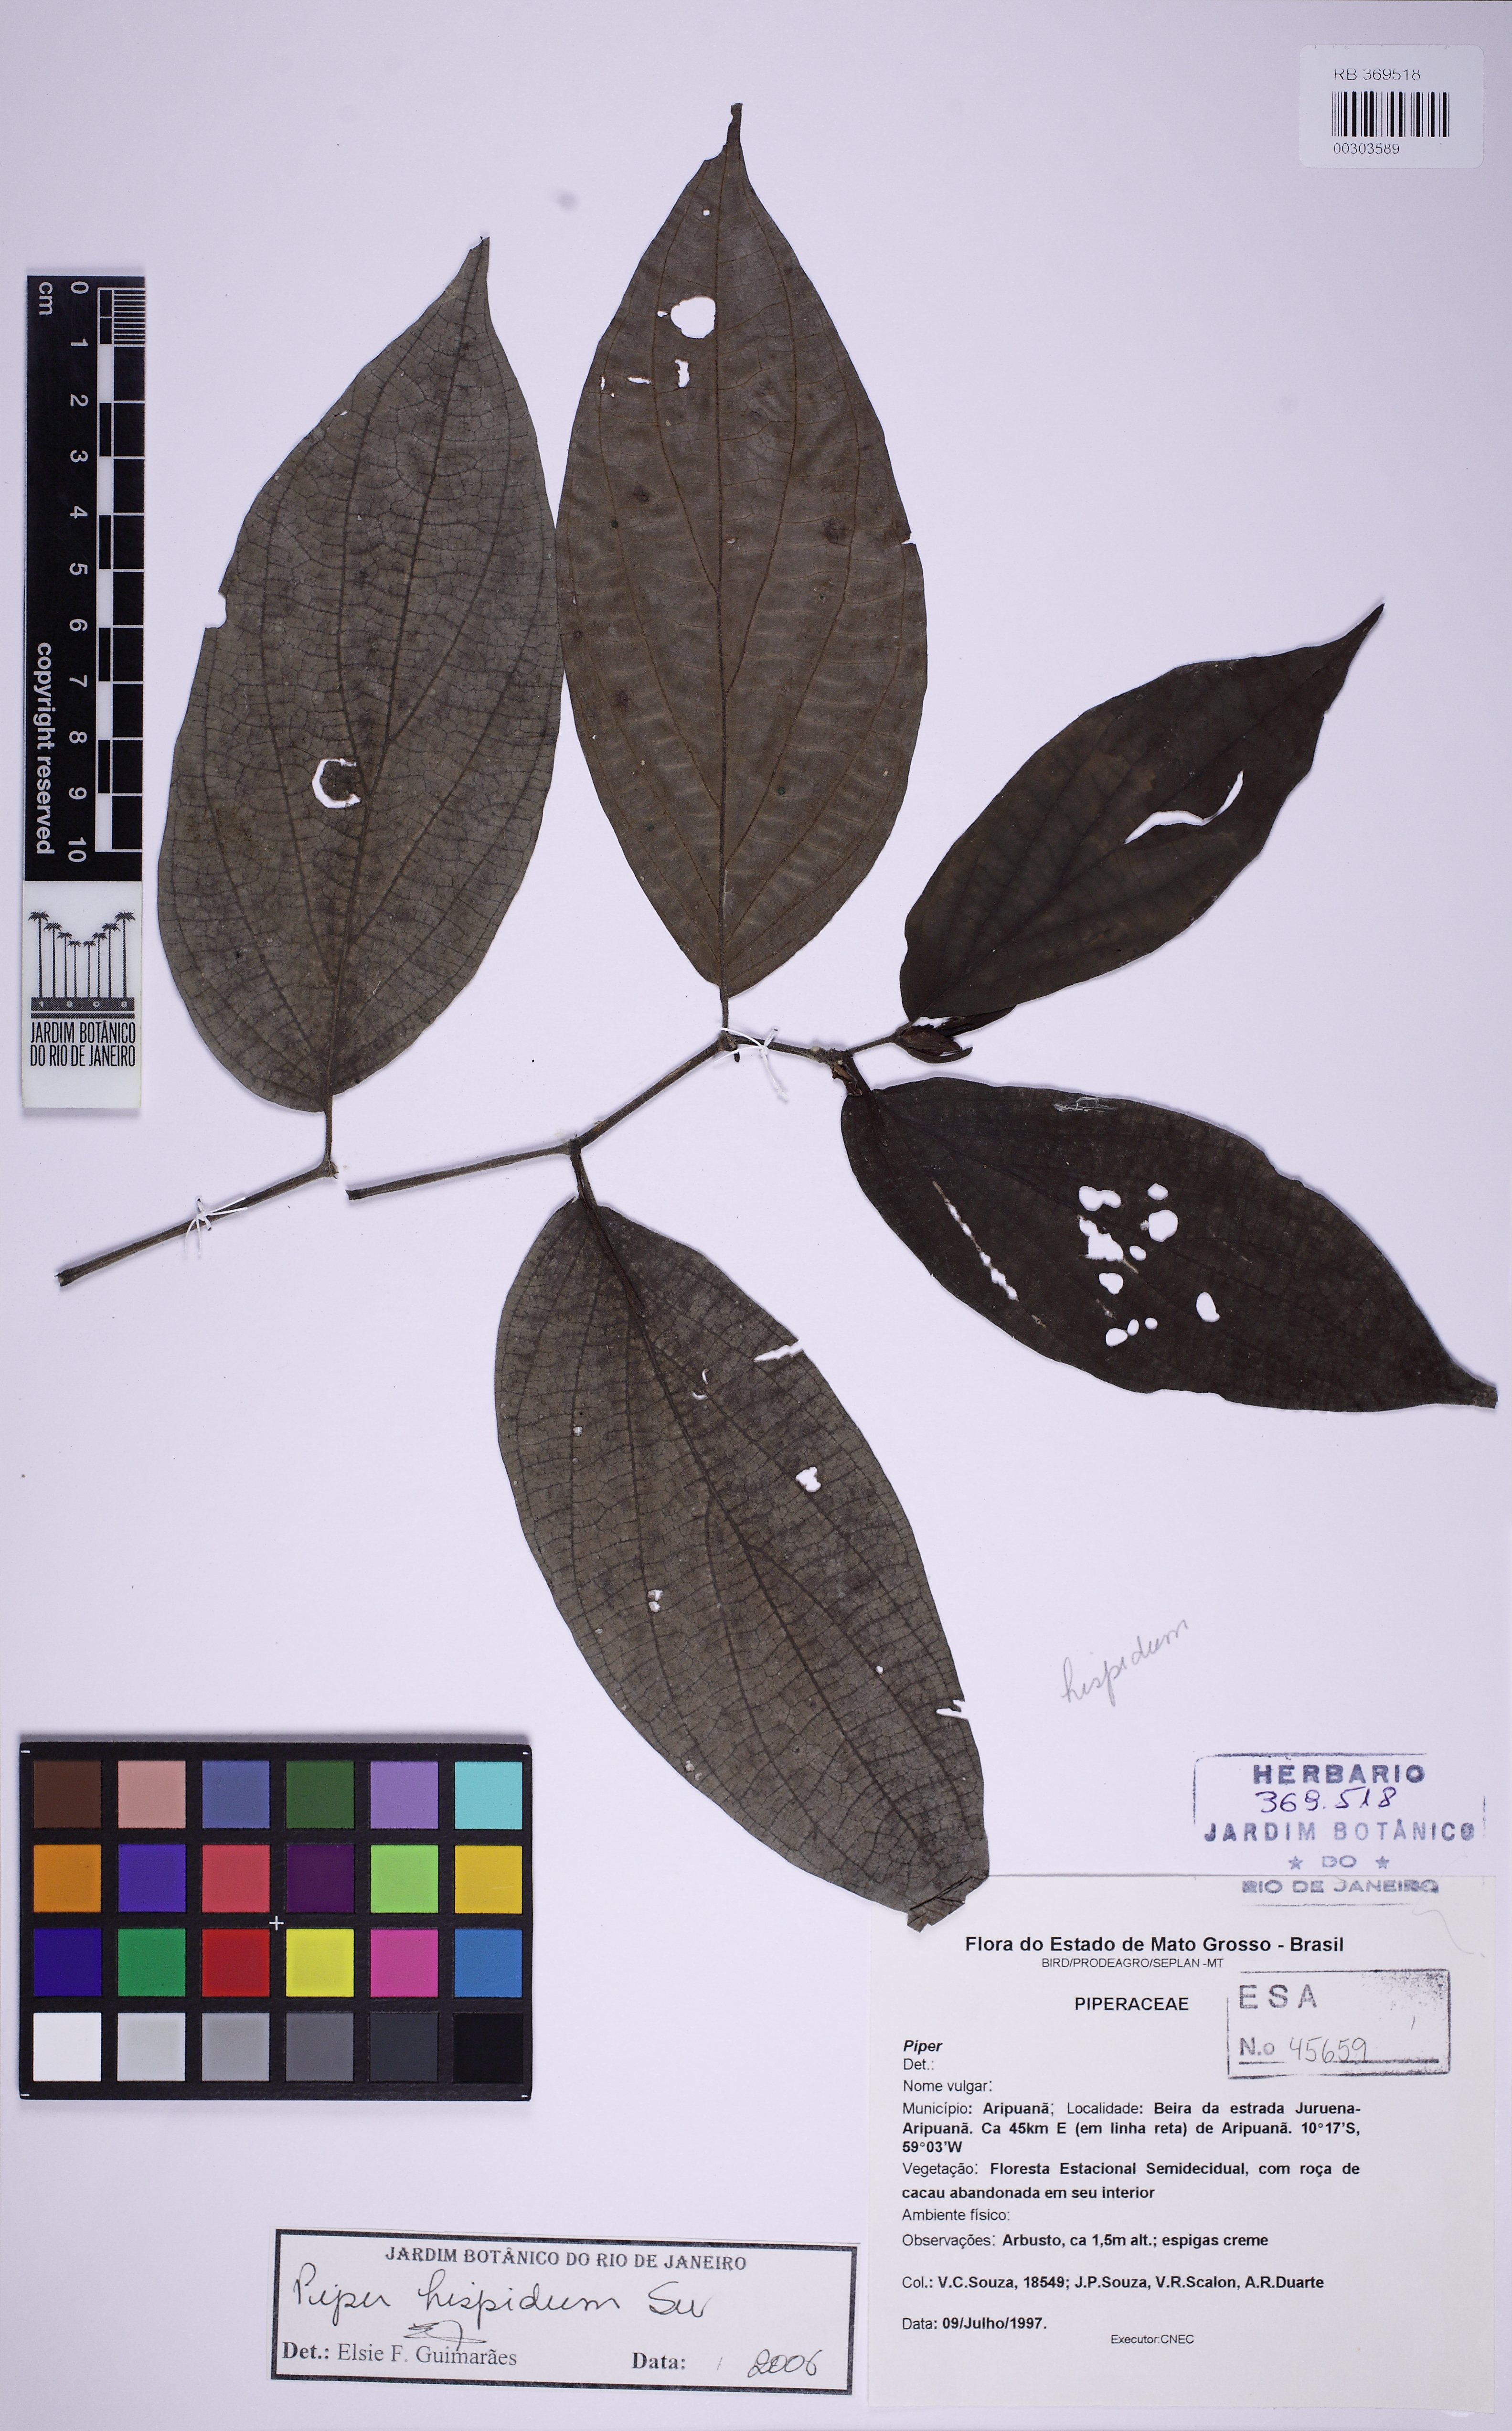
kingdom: Plantae
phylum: Tracheophyta
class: Magnoliopsida
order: Piperales
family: Piperaceae
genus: Piper
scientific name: Piper hispidum
